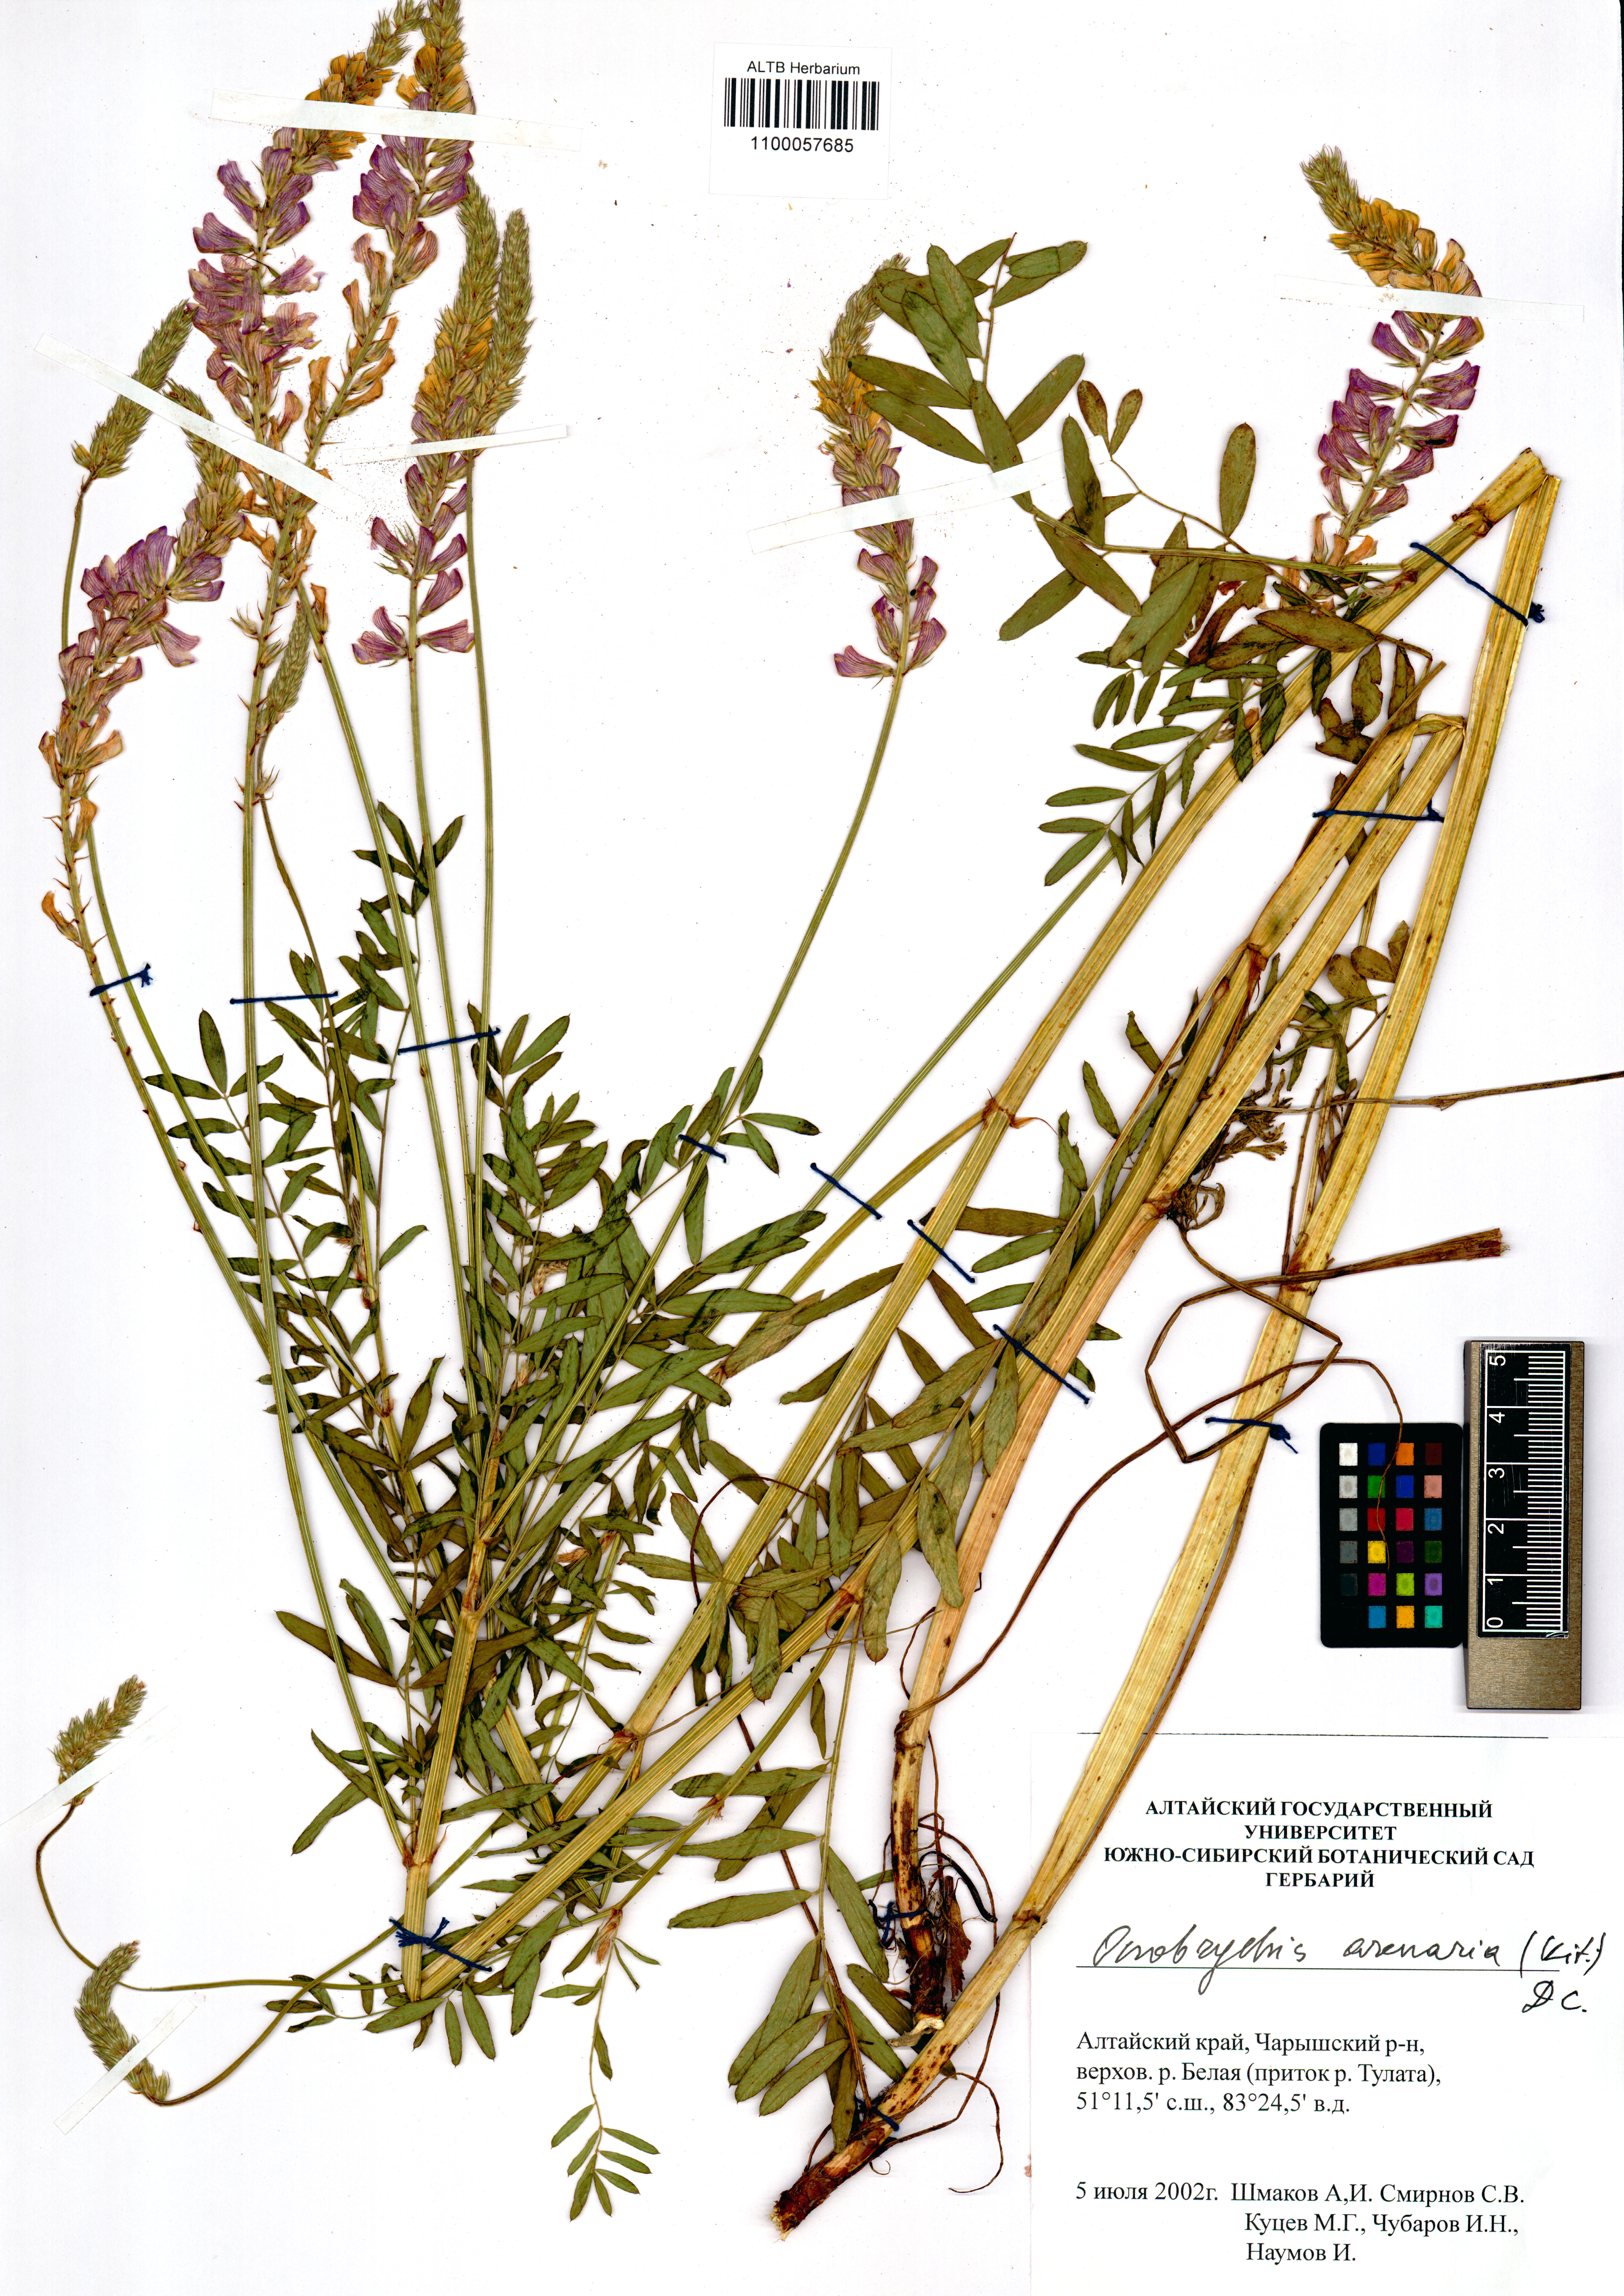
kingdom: Plantae
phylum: Tracheophyta
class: Magnoliopsida
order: Fabales
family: Fabaceae
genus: Onobrychis
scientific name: Onobrychis arenaria
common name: Sand esparcet
